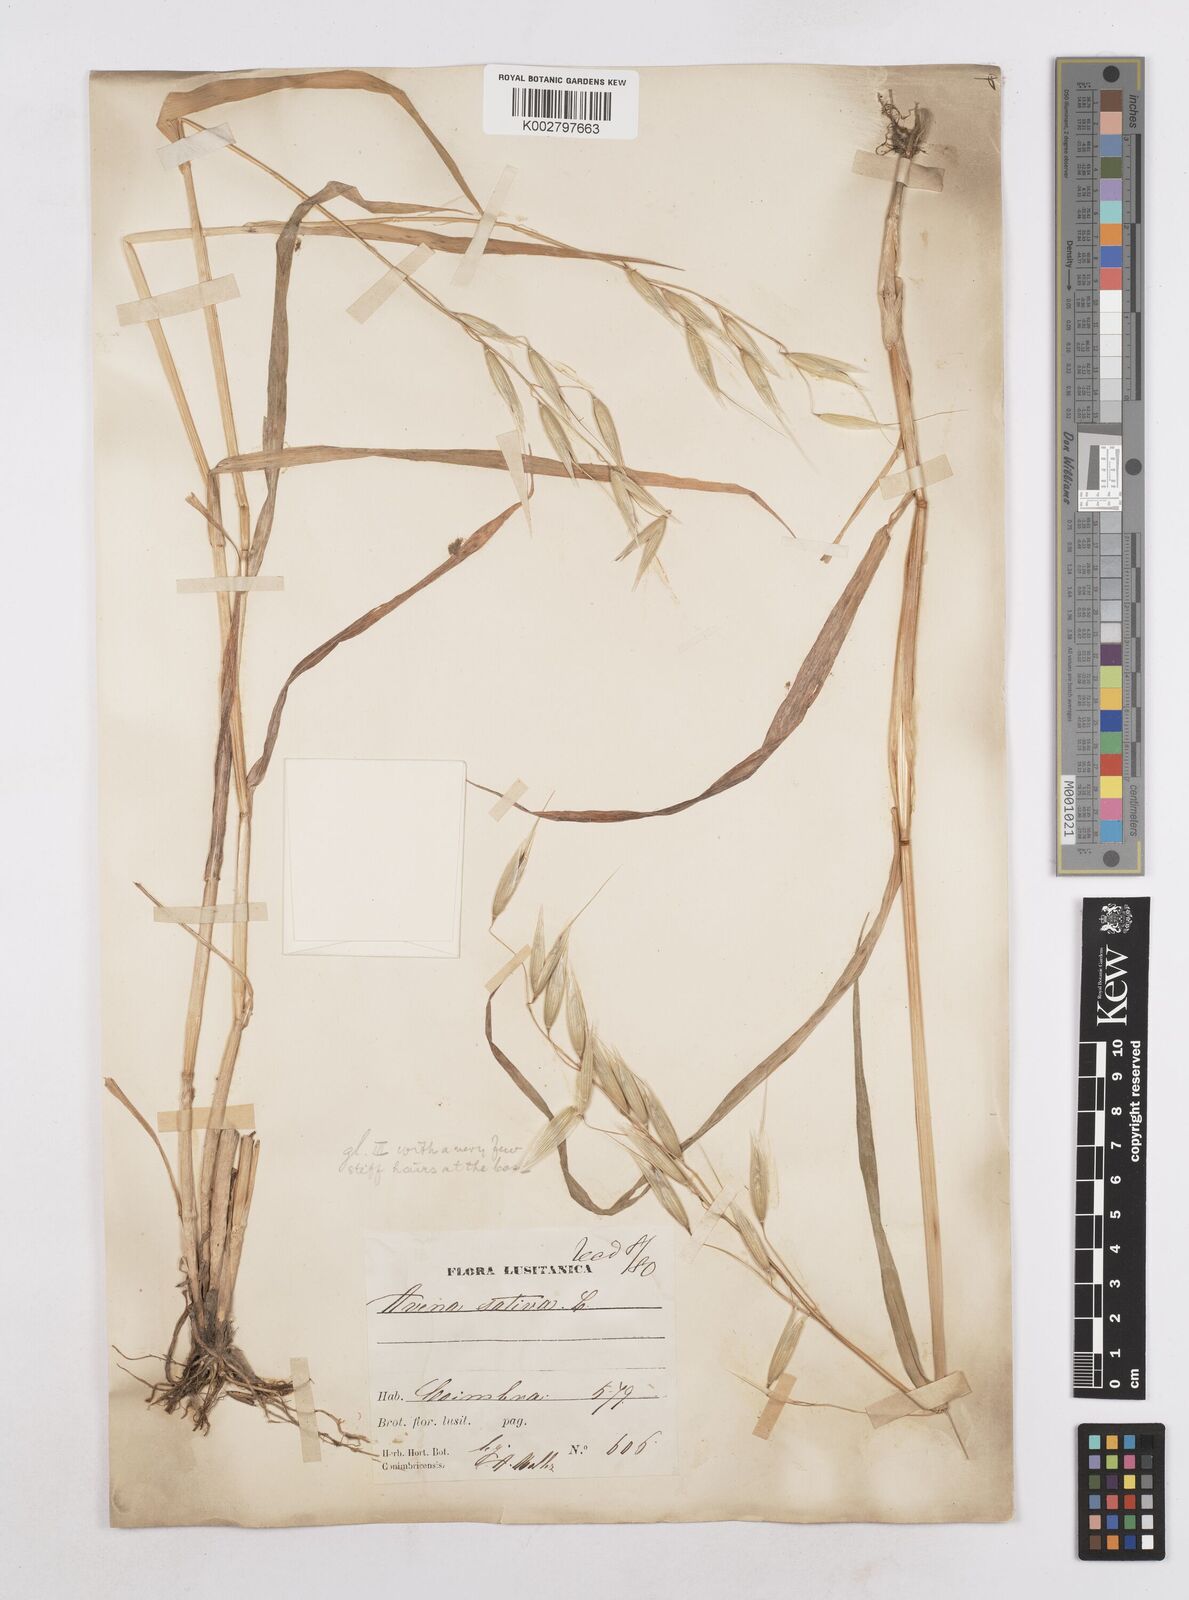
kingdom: Plantae
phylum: Tracheophyta
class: Liliopsida
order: Poales
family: Poaceae
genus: Avena
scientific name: Avena byzantina
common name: Algerian oat
